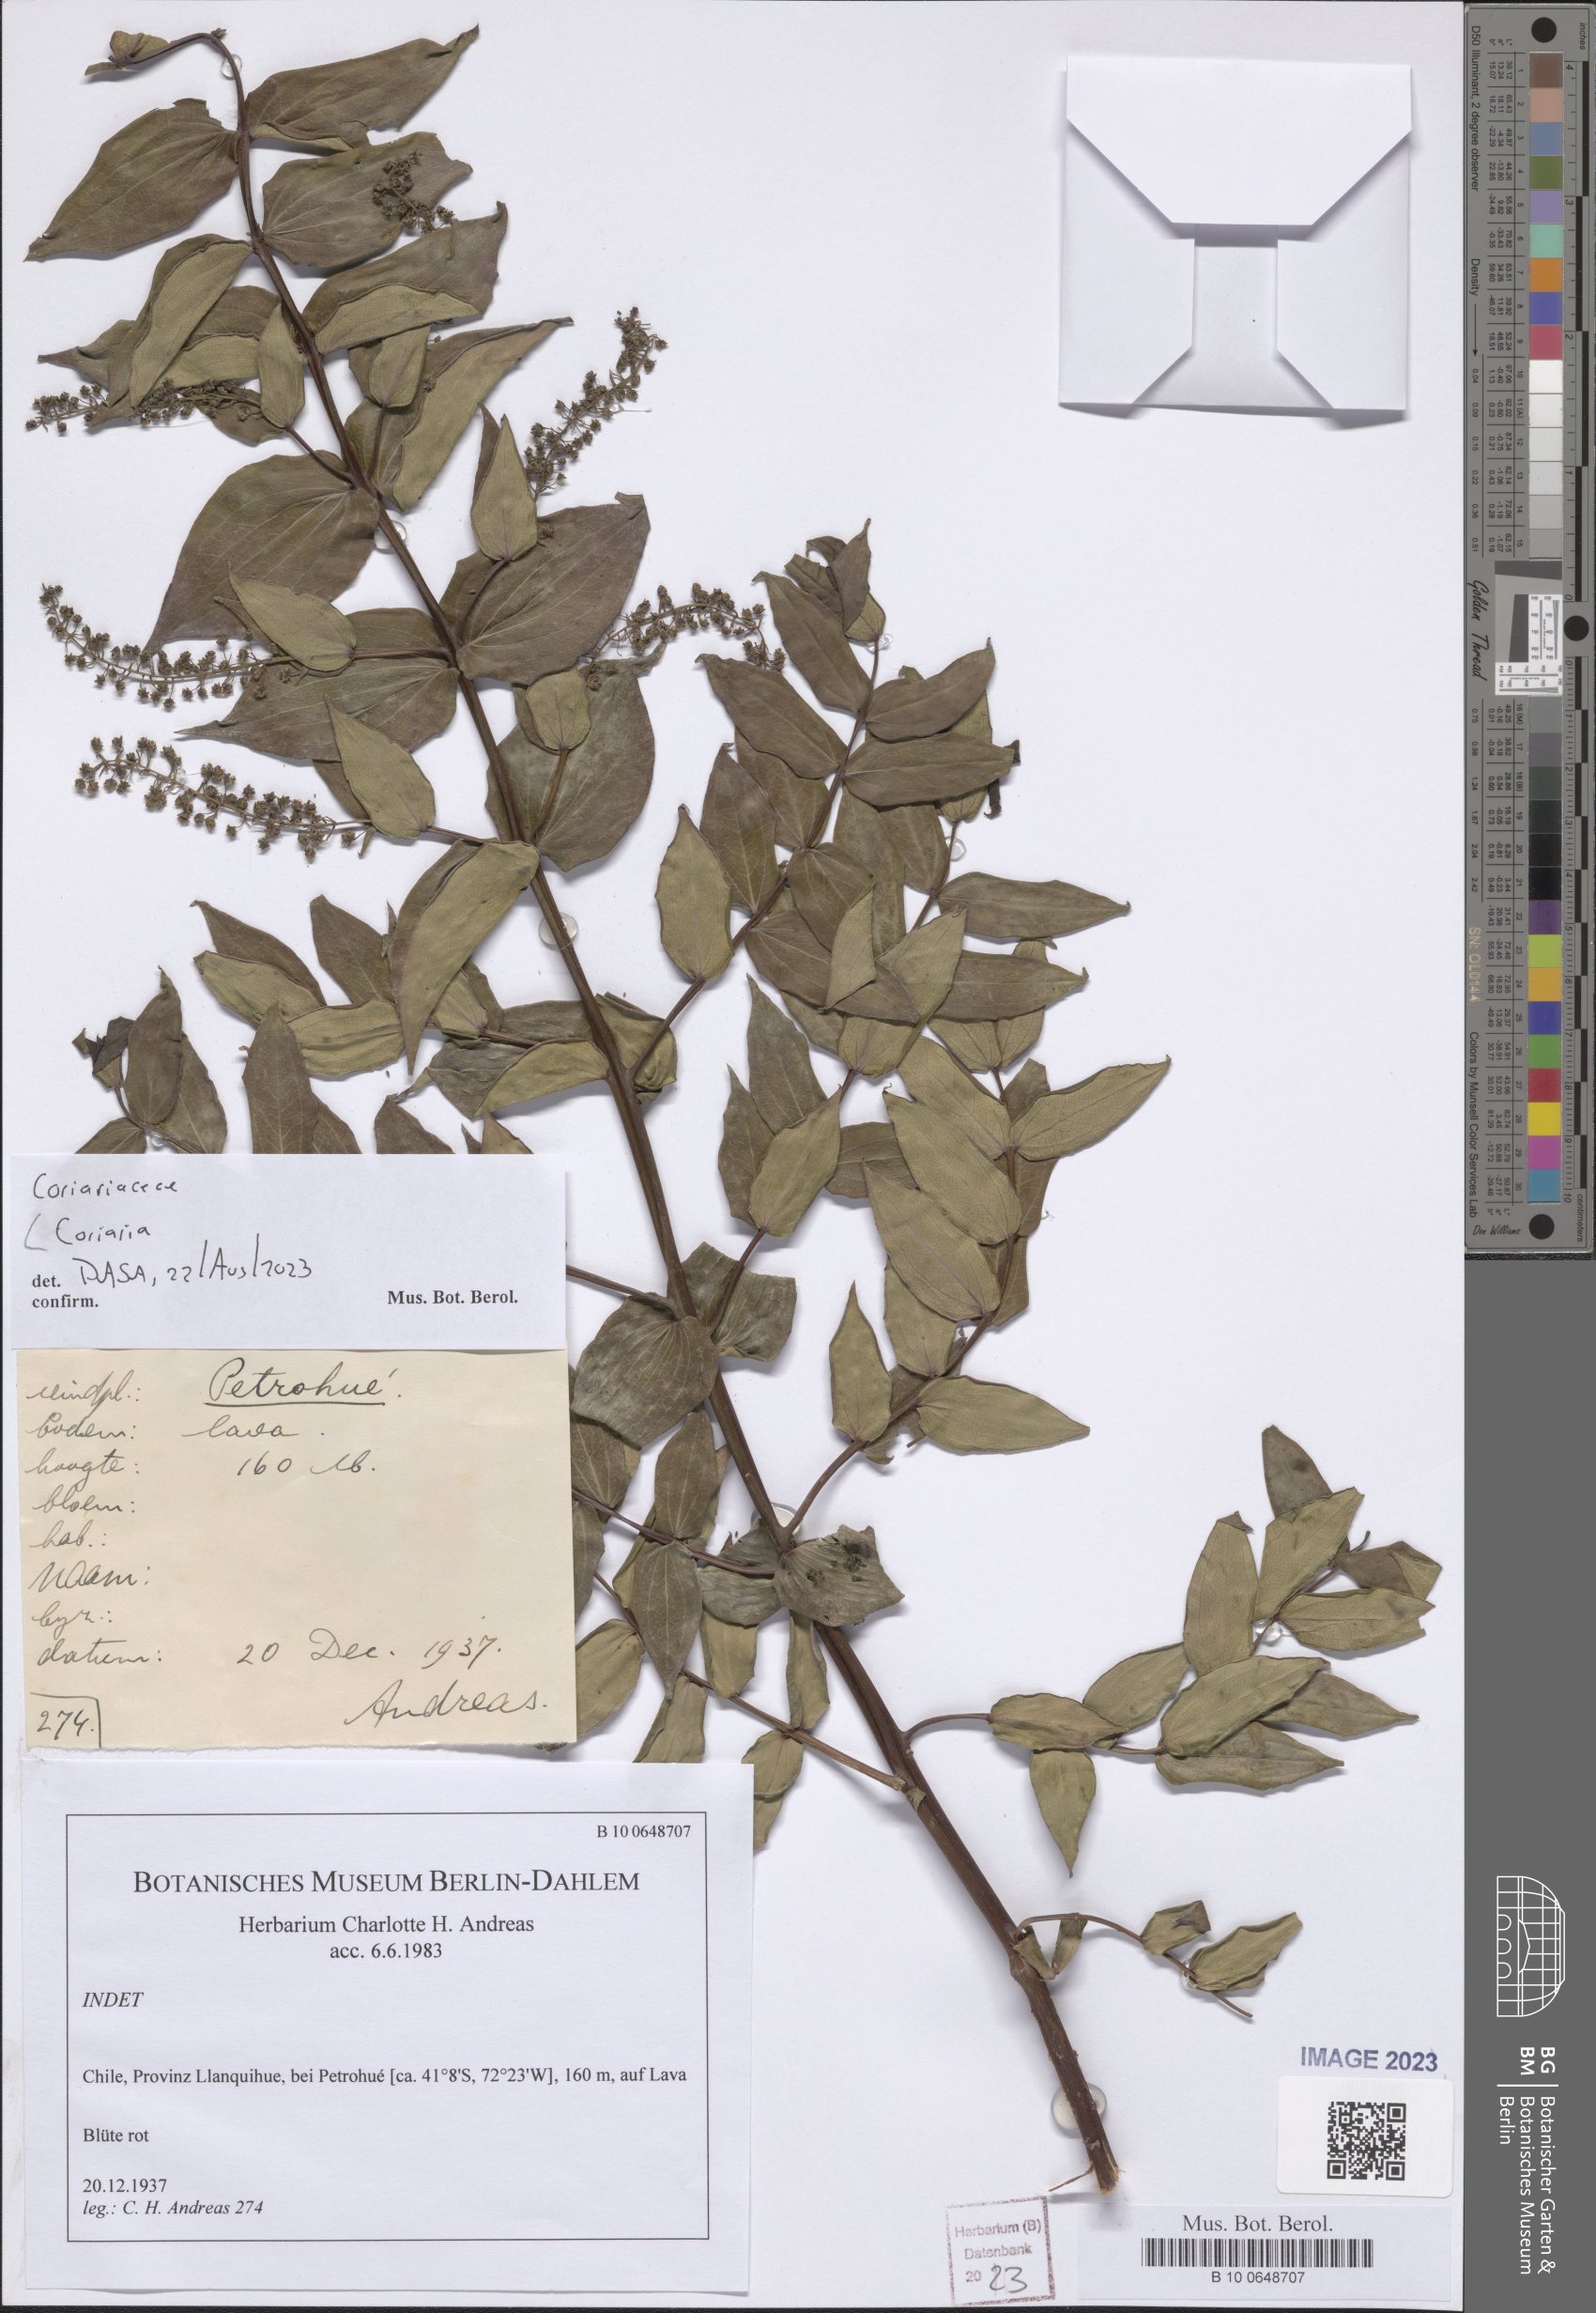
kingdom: Plantae
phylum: Tracheophyta
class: Magnoliopsida
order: Cucurbitales
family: Coriariaceae
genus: Coriaria
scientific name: Coriaria
